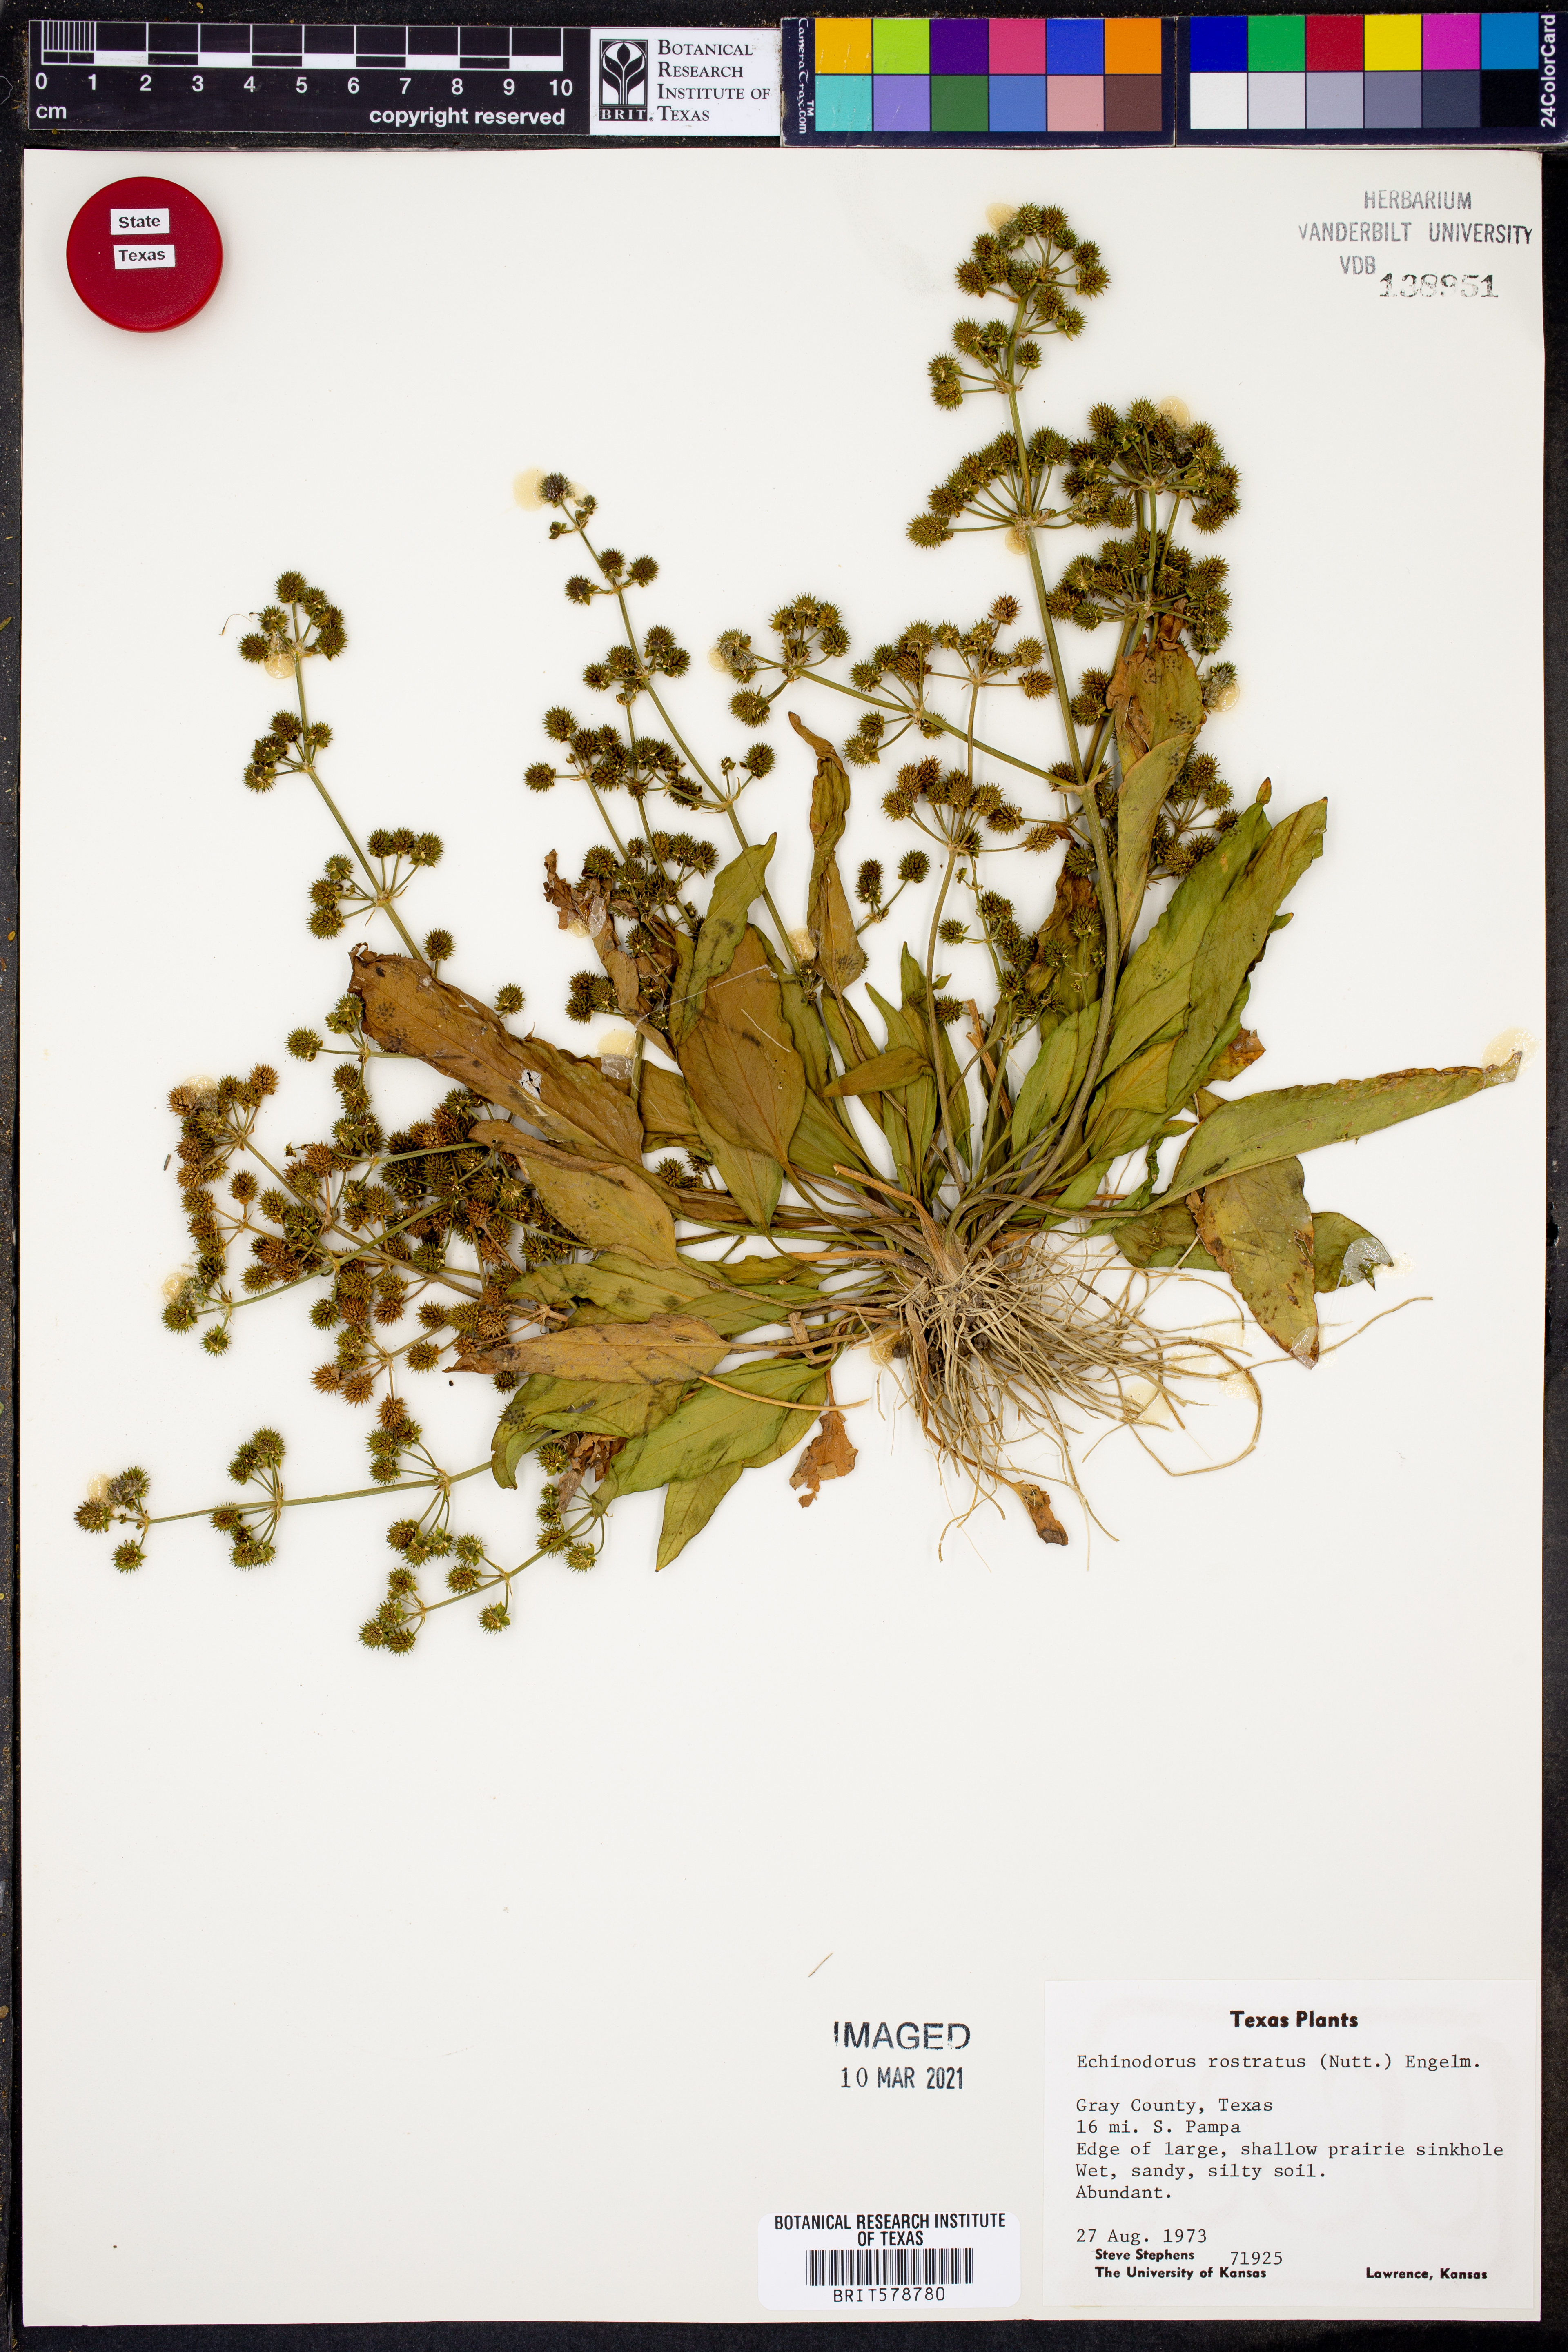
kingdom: Plantae
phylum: Tracheophyta
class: Liliopsida
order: Alismatales
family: Alismataceae
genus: Echinodorus
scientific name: Echinodorus berteroi
